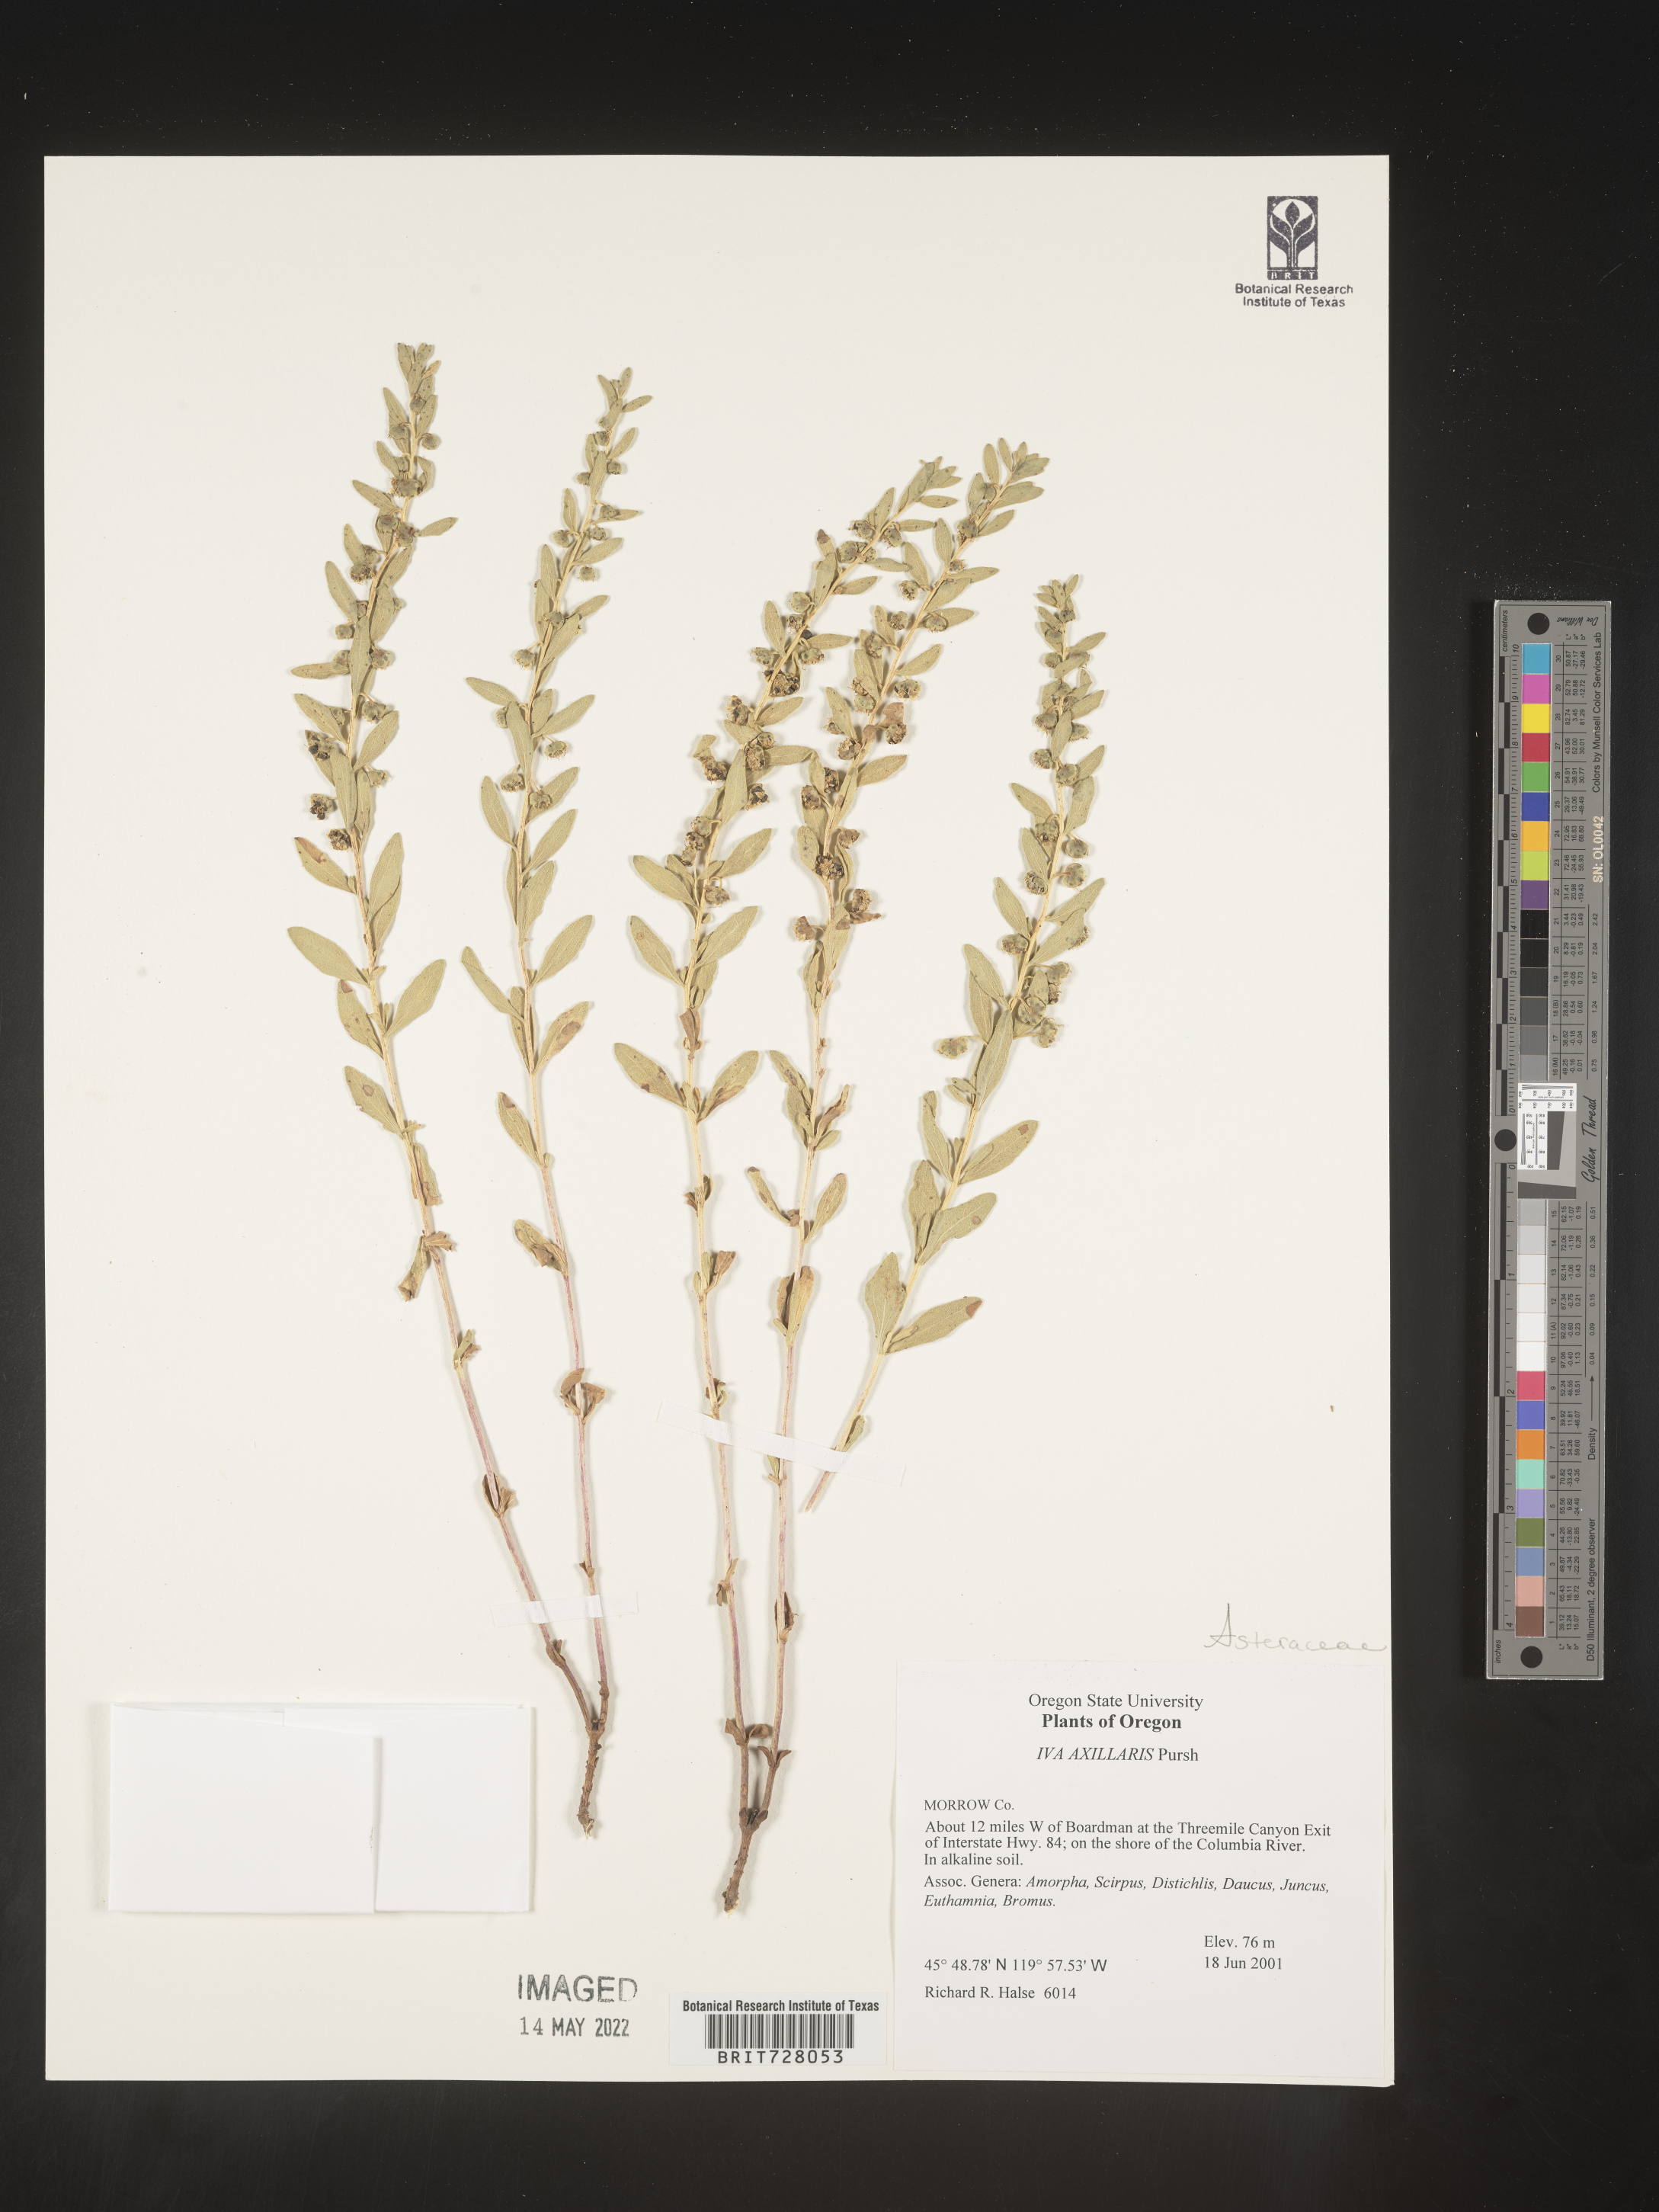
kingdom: Plantae
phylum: Tracheophyta
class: Magnoliopsida
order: Asterales
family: Asteraceae
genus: Iva
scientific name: Iva axillaris
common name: Poverty sumpweed
